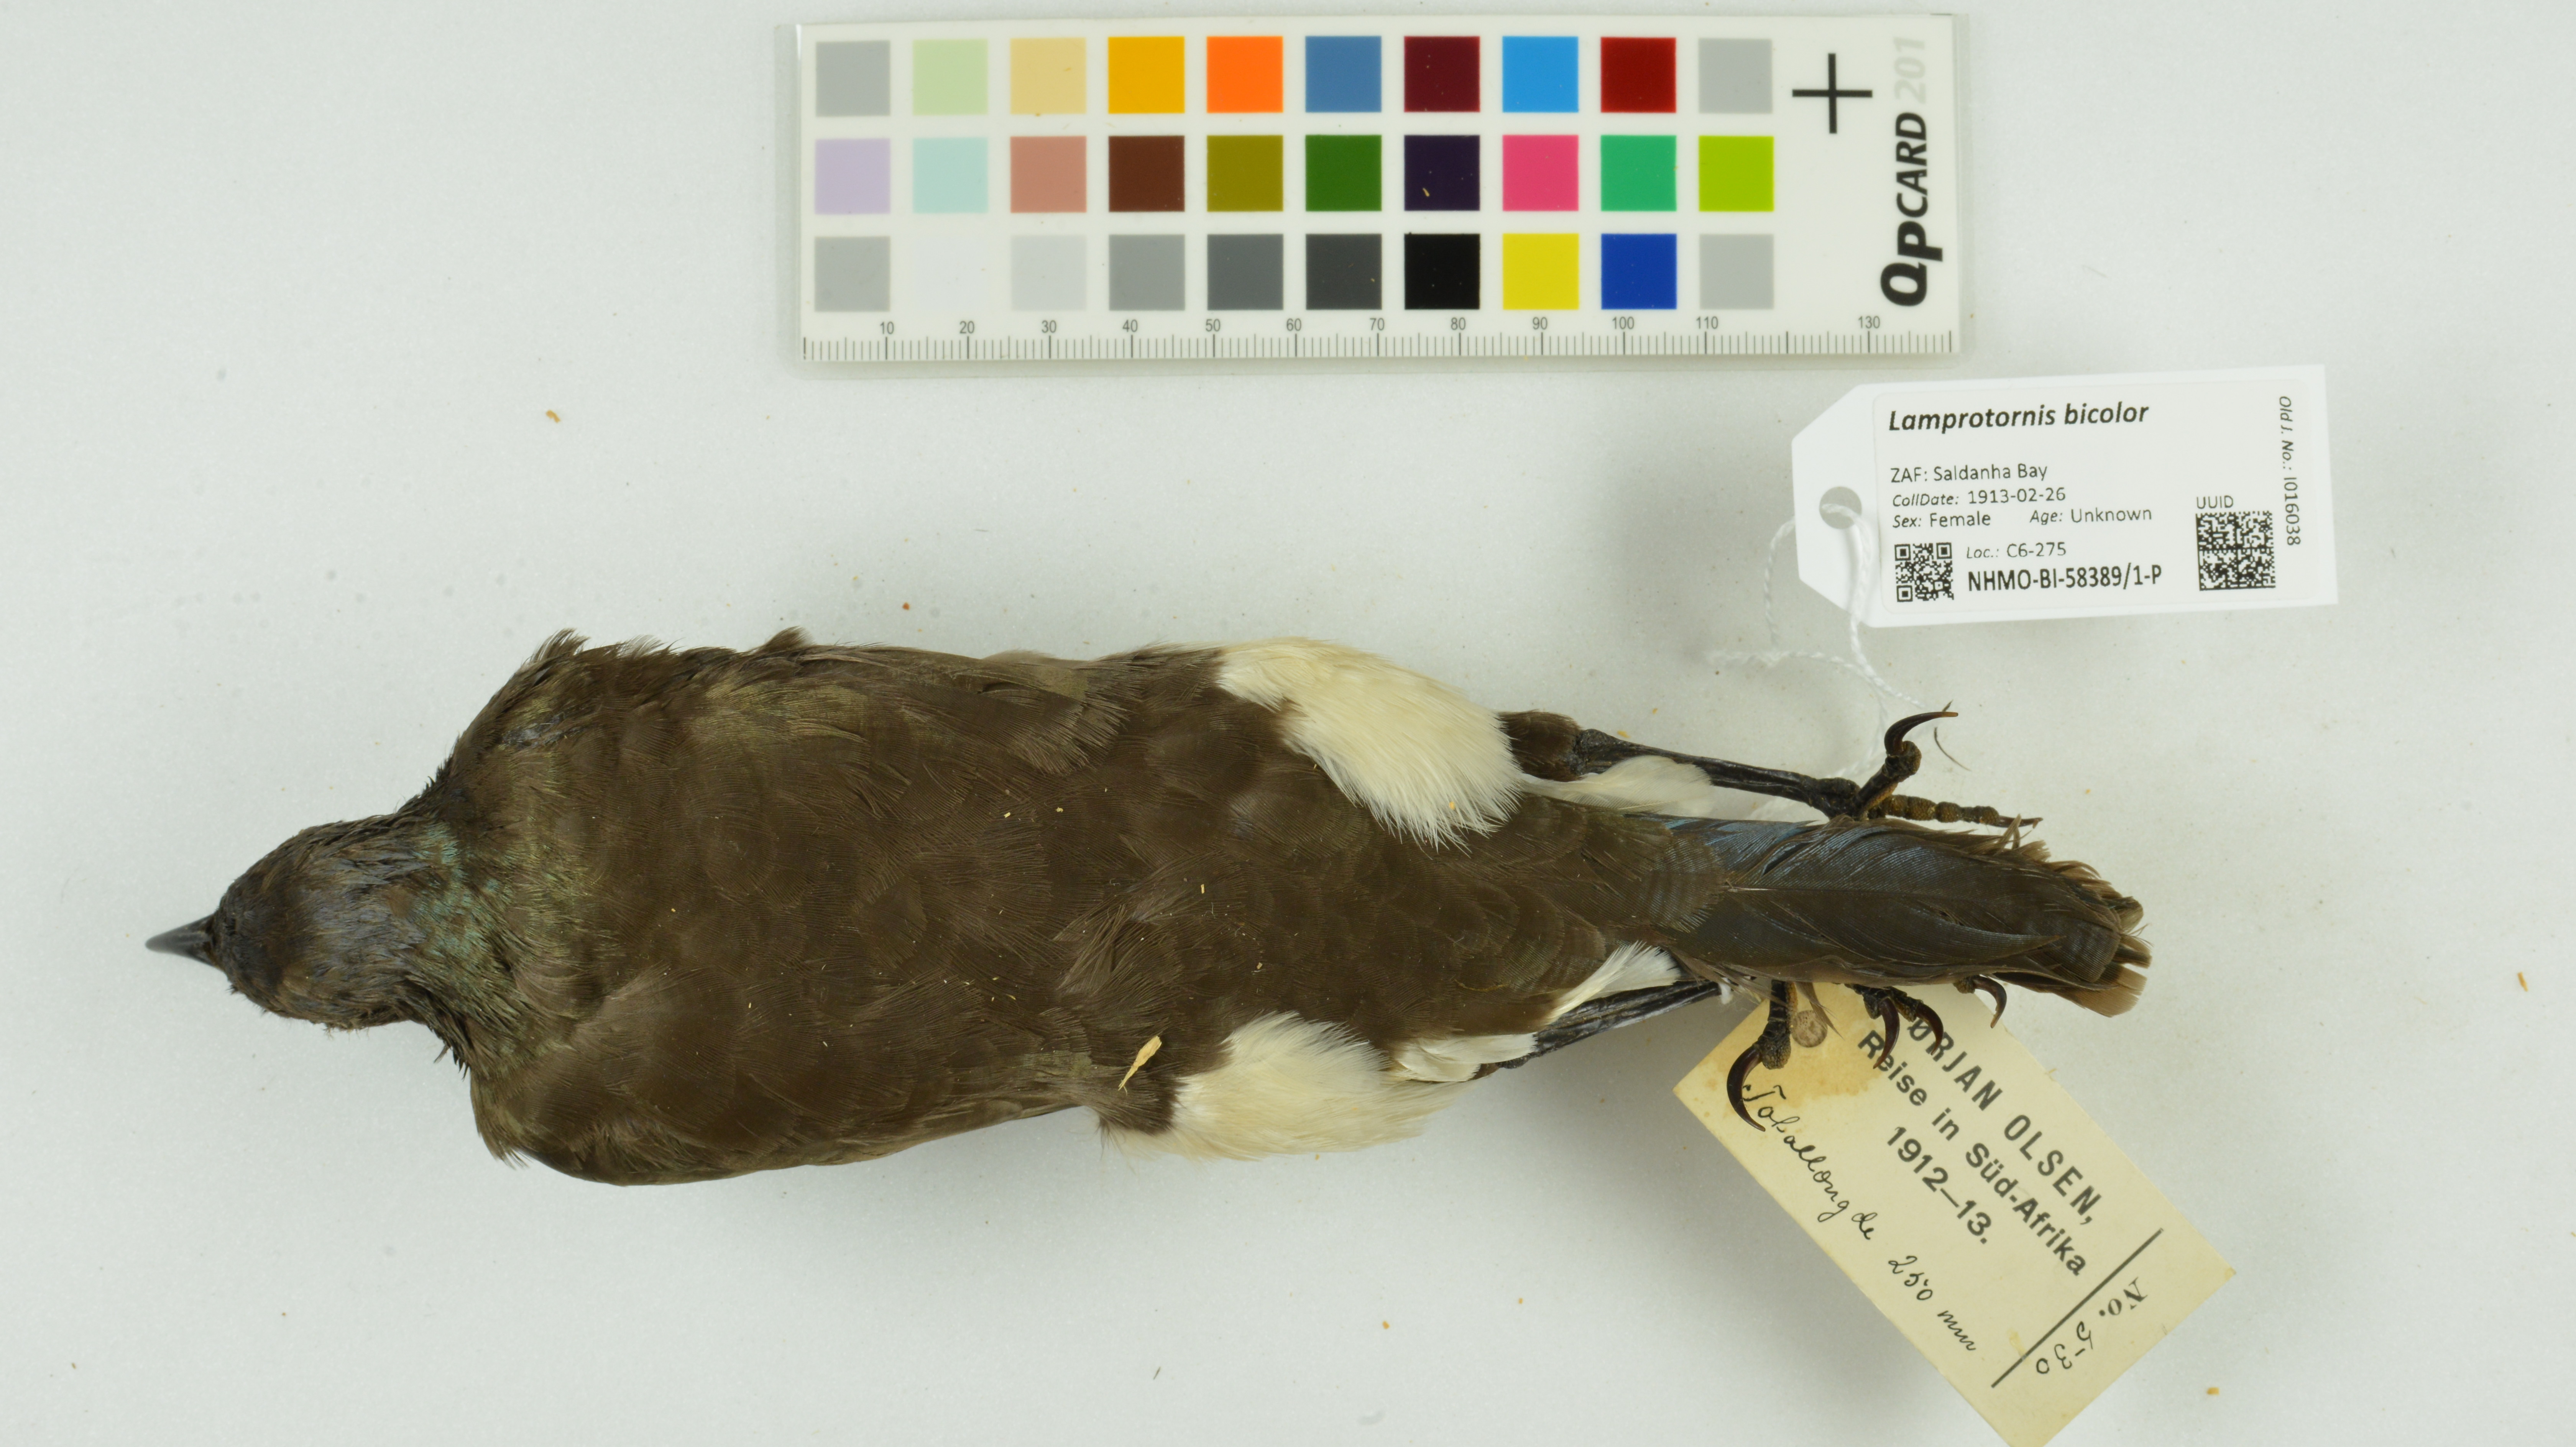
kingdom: Animalia
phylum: Chordata
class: Aves
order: Passeriformes
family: Sturnidae
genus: Lamprotornis
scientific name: Lamprotornis bicolor
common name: Pied starling
